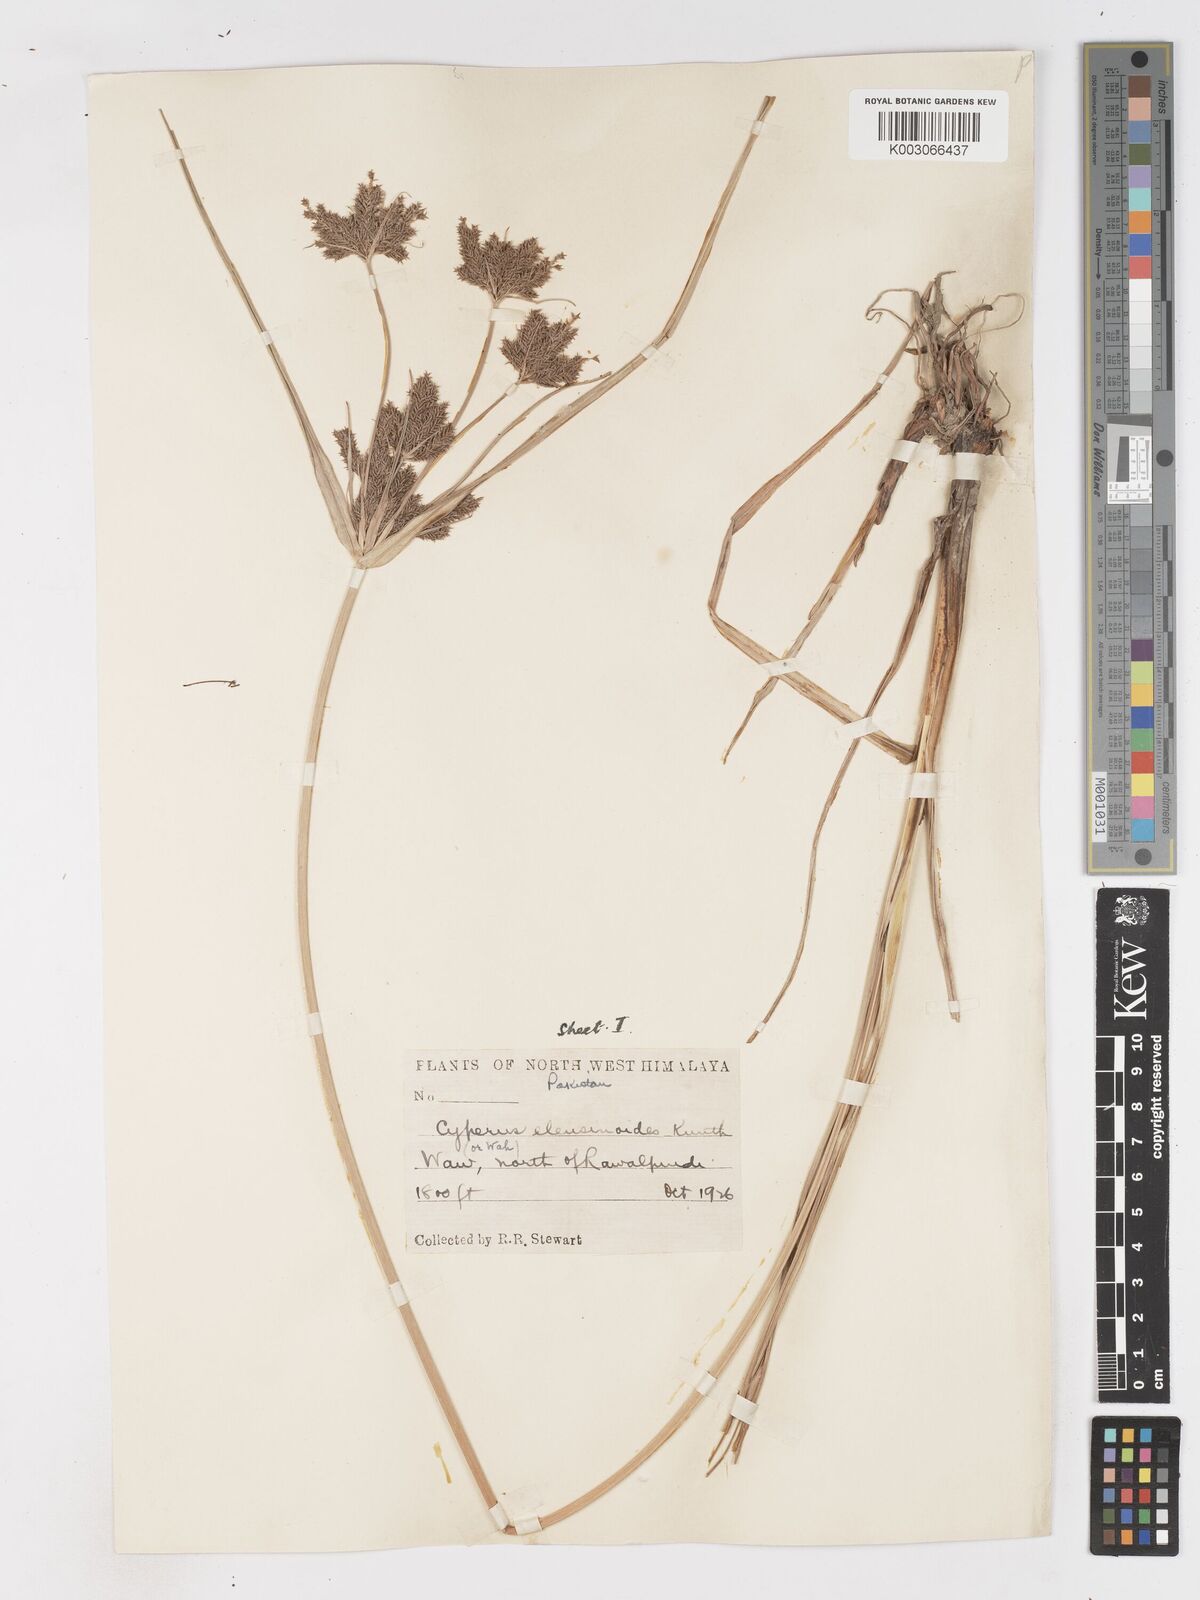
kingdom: Plantae
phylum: Tracheophyta
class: Liliopsida
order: Poales
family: Cyperaceae
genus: Cyperus
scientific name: Cyperus nutans
